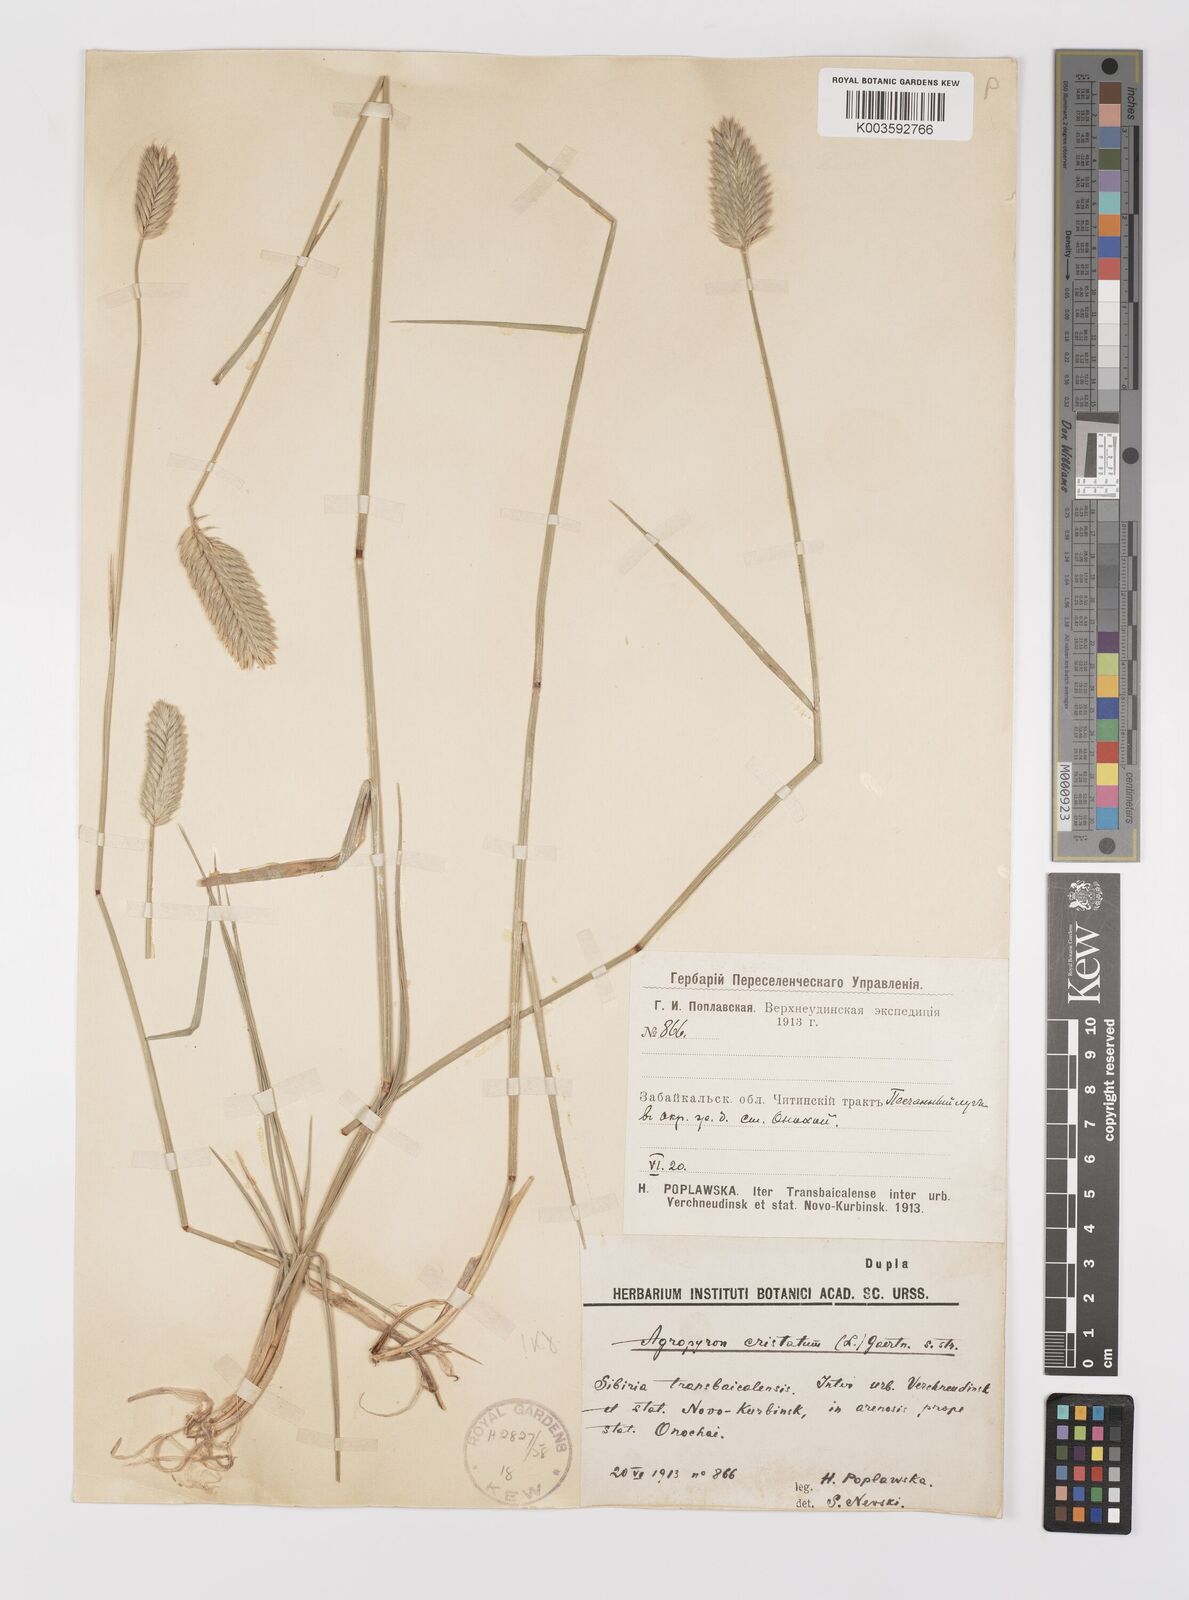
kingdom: Plantae
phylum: Tracheophyta
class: Liliopsida
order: Poales
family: Poaceae
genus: Agropyron
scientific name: Agropyron cristatum
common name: Crested wheatgrass
